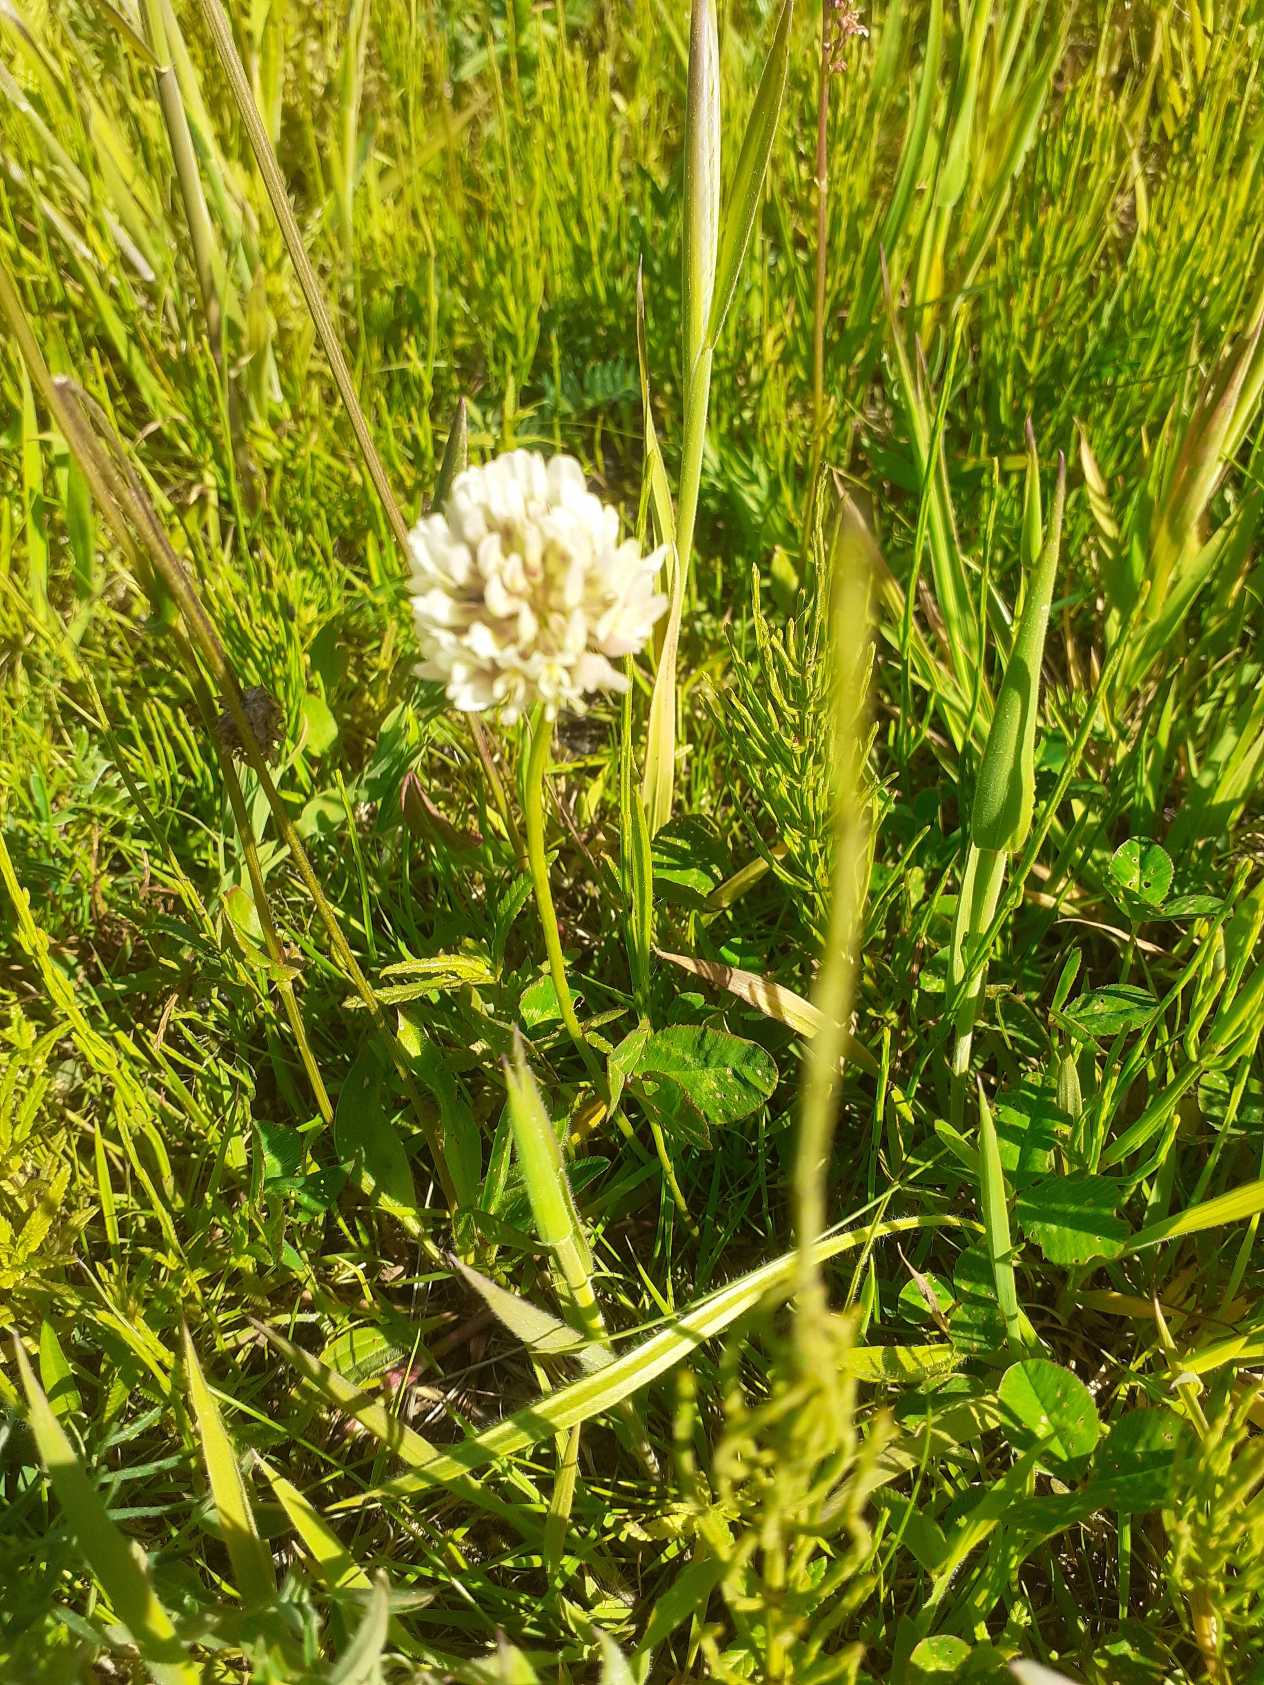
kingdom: Plantae
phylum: Tracheophyta
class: Magnoliopsida
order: Fabales
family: Fabaceae
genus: Trifolium
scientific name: Trifolium repens
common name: Hvid-kløver
